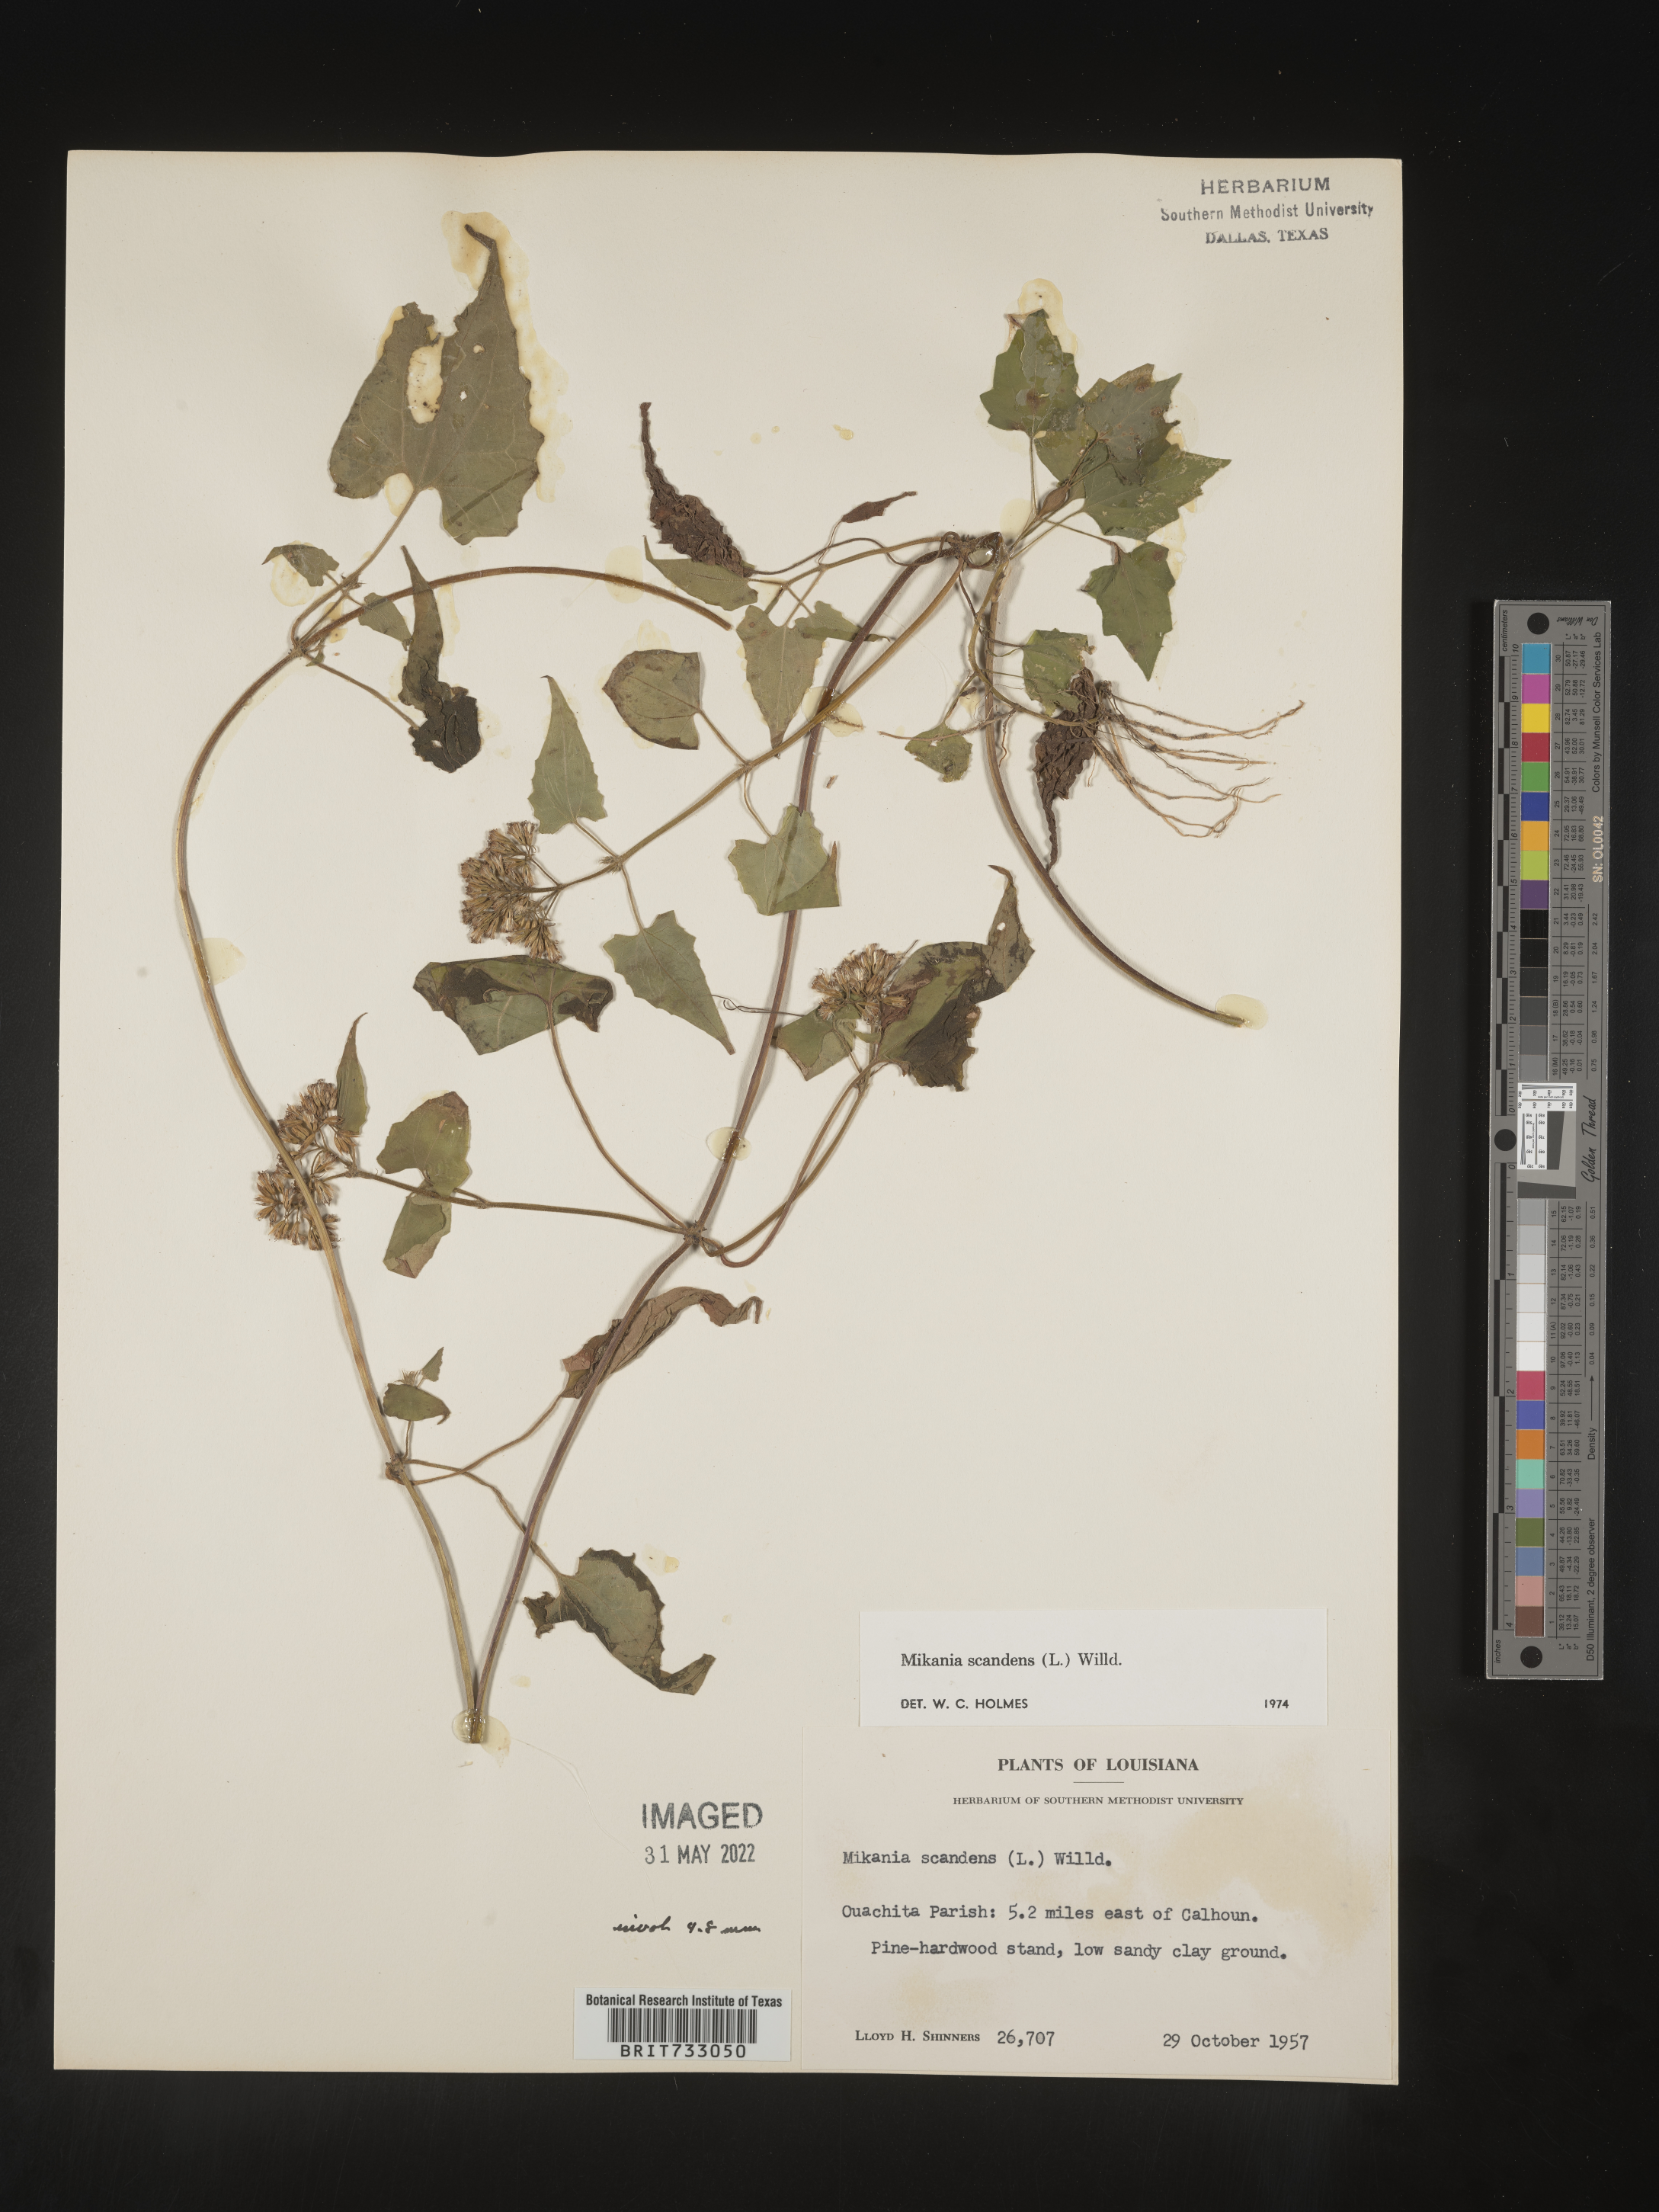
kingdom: Plantae
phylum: Tracheophyta
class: Magnoliopsida
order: Asterales
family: Asteraceae
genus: Mikania
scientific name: Mikania scandens
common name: Climbing hempvine
